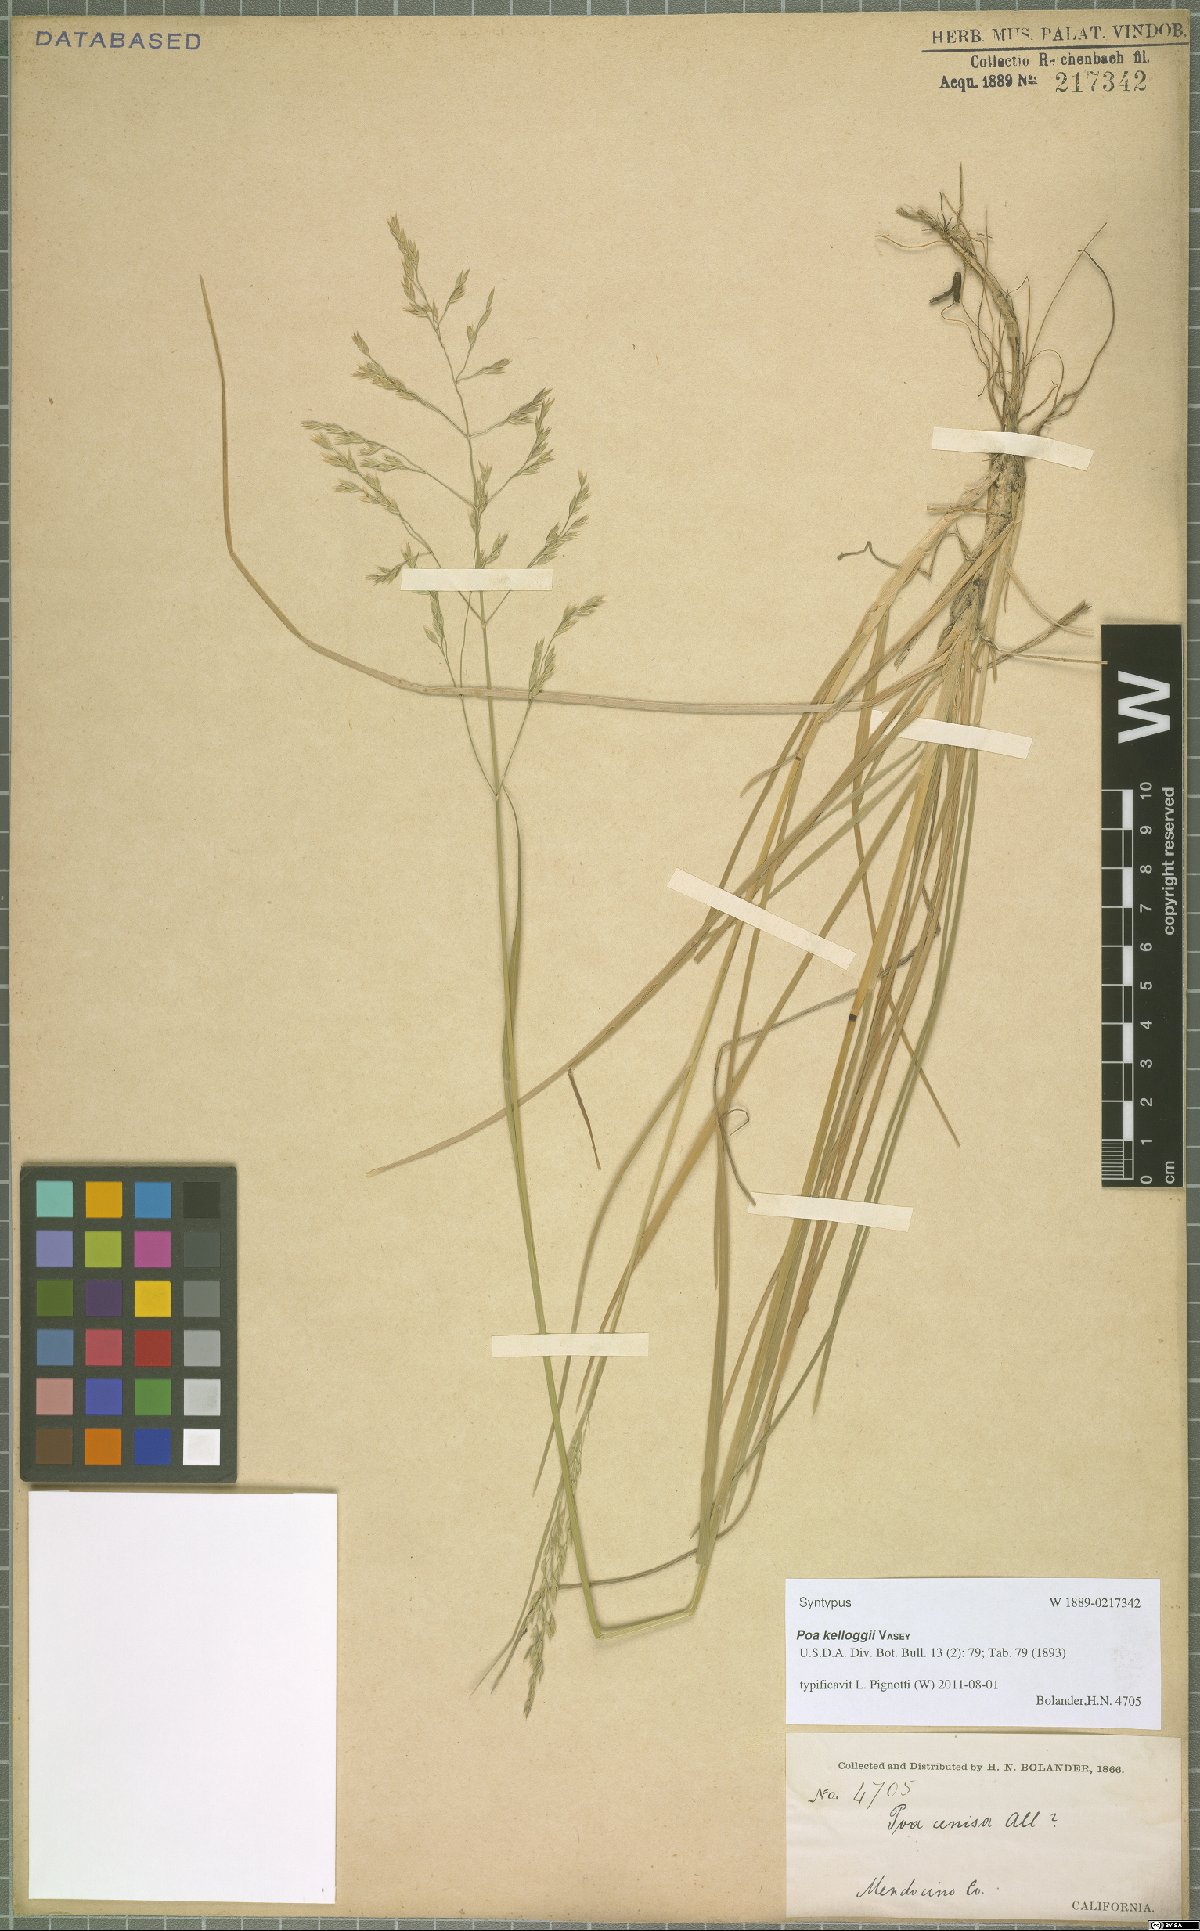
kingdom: Plantae
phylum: Tracheophyta
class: Liliopsida
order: Poales
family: Poaceae
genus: Poa
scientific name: Poa kelloggii
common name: Kellogg's bluegrass
